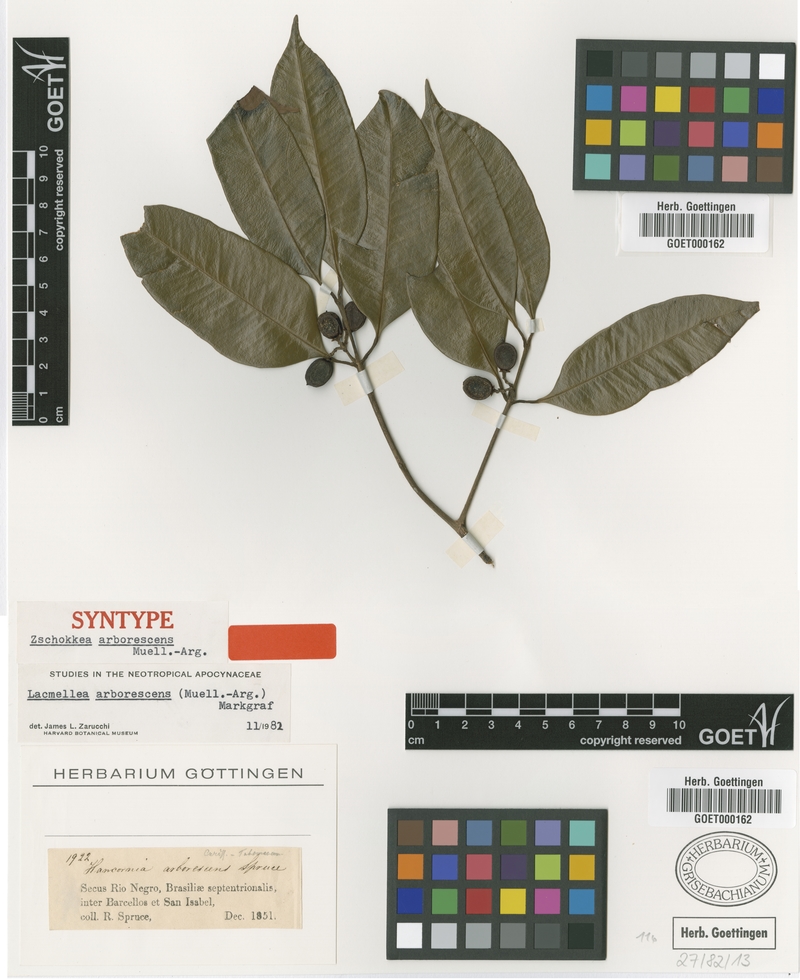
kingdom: Plantae
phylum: Tracheophyta
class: Magnoliopsida
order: Gentianales
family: Apocynaceae
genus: Lacmellea
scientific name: Lacmellea arborescens
